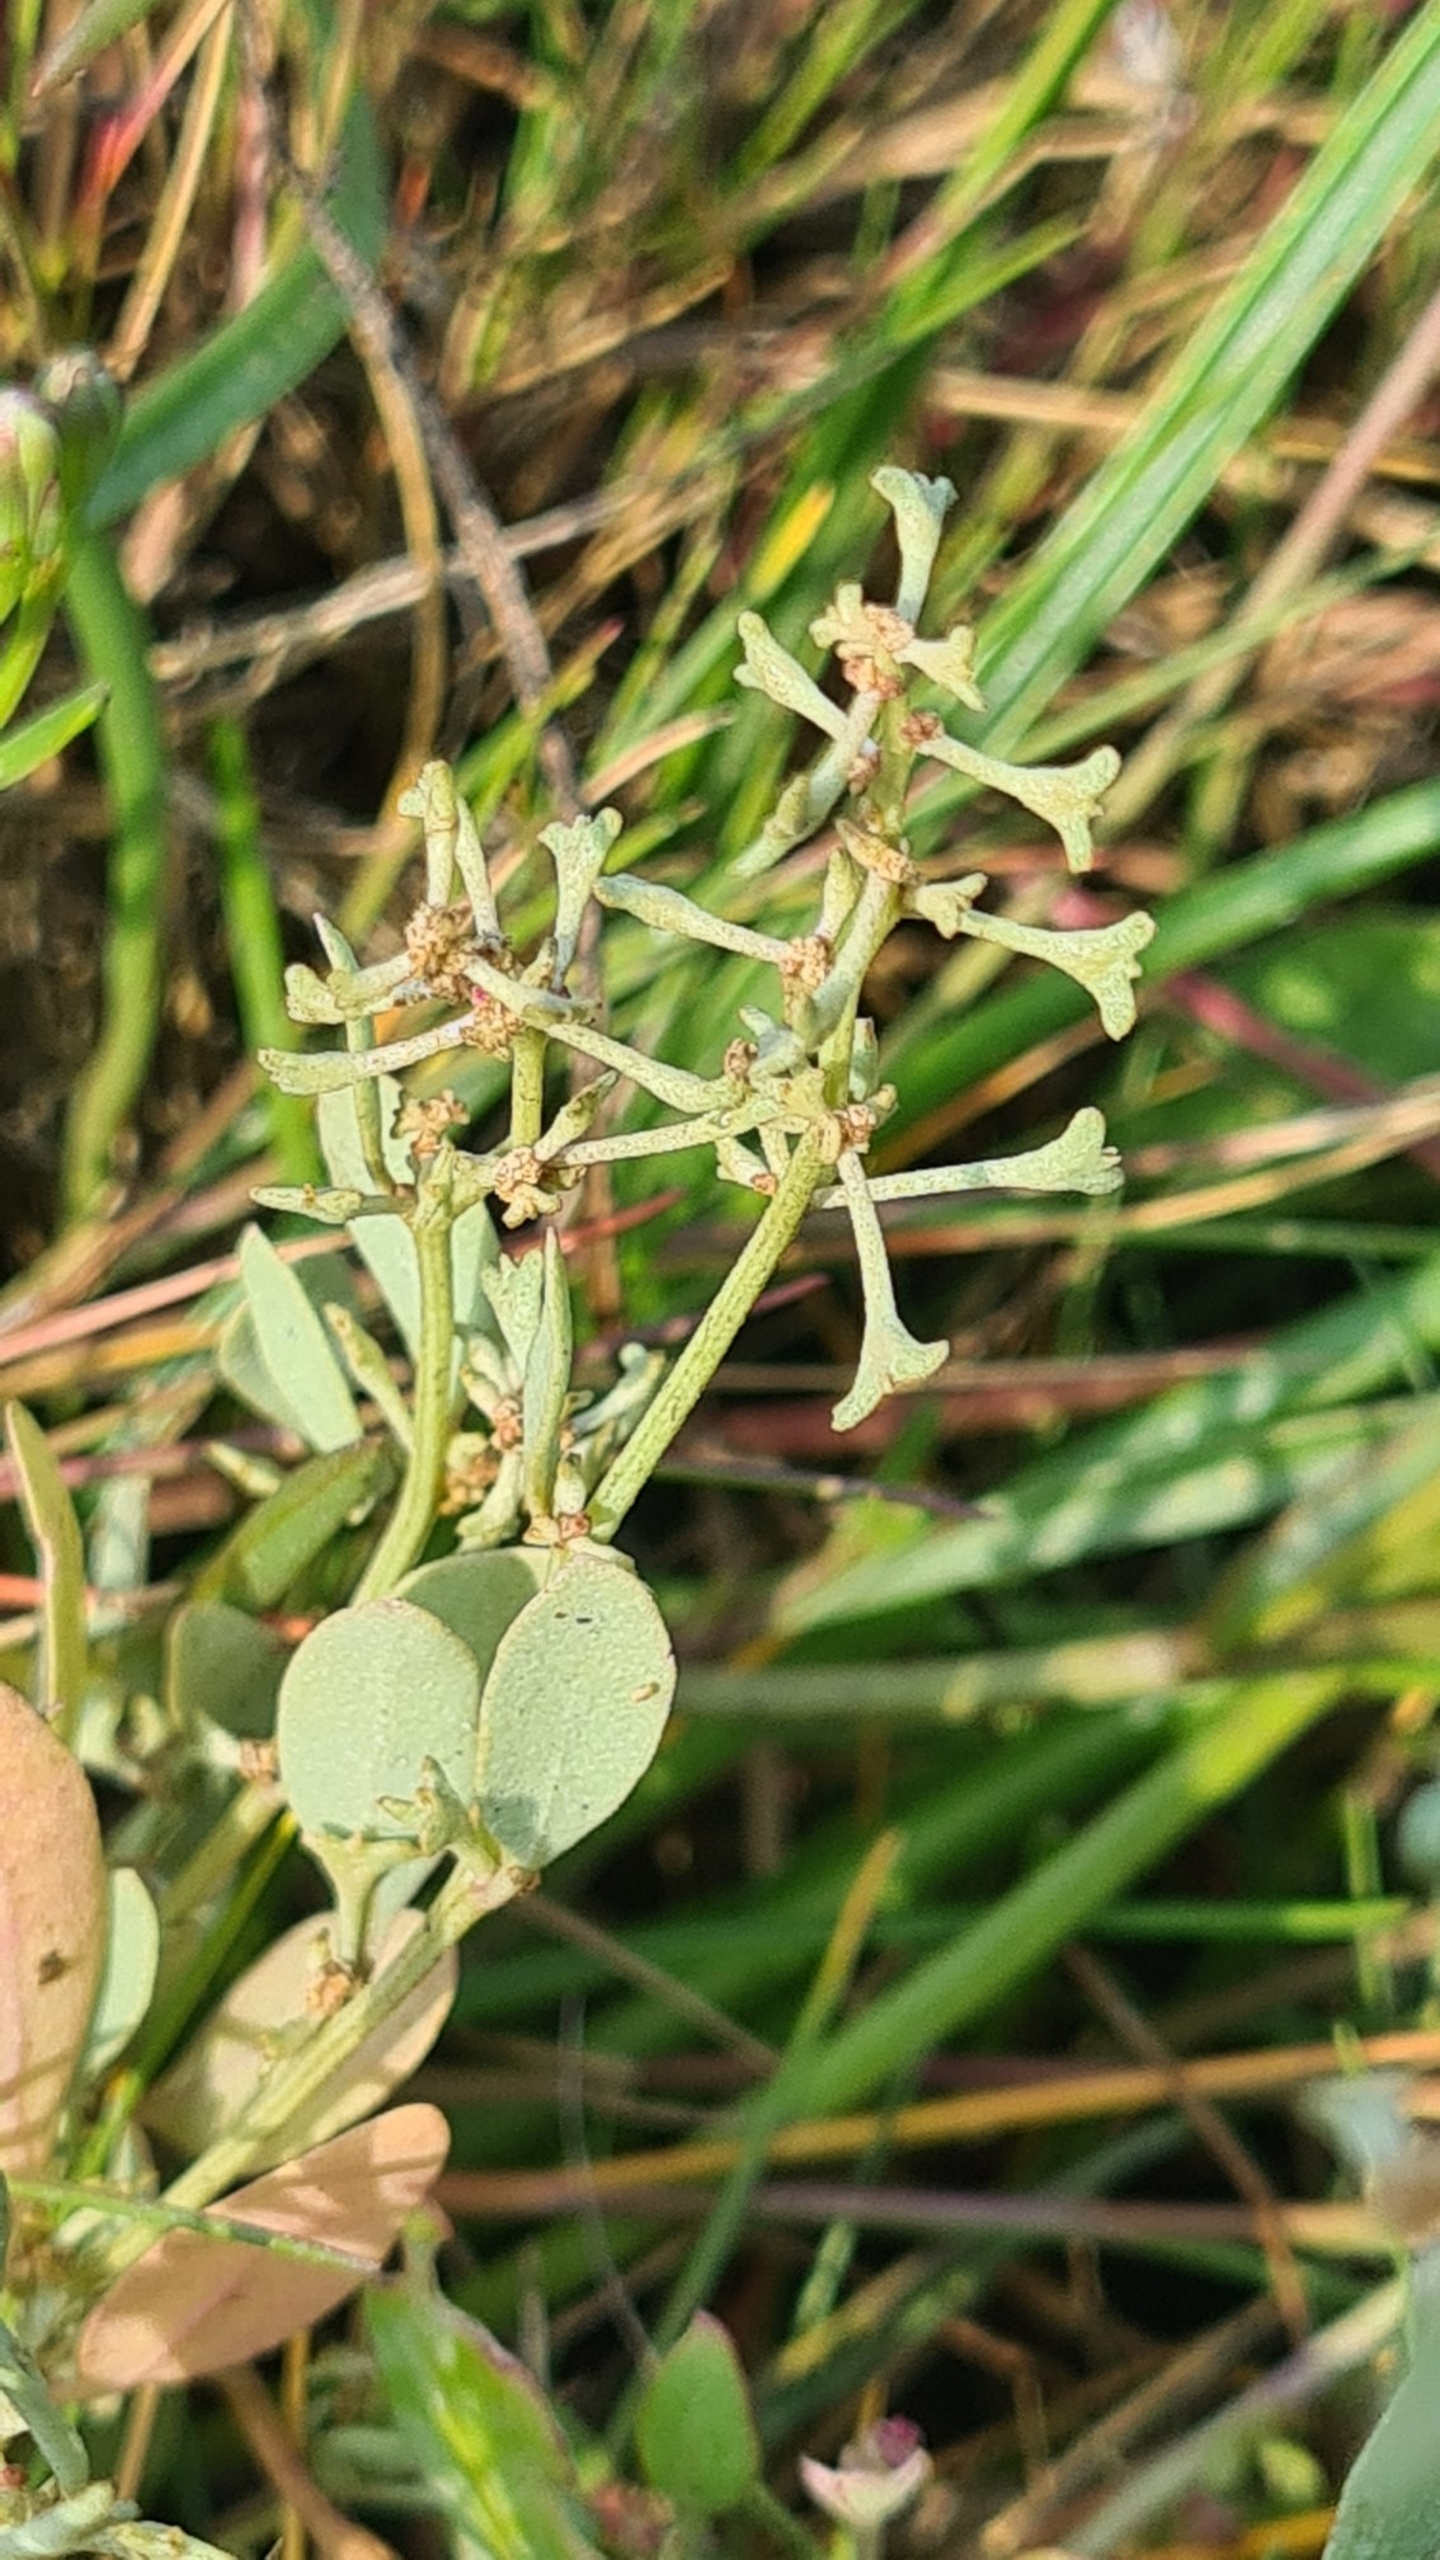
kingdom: Plantae
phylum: Tracheophyta
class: Magnoliopsida
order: Caryophyllales
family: Amaranthaceae
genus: Halimione
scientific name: Halimione pedunculata
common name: Stilket kilebæger
